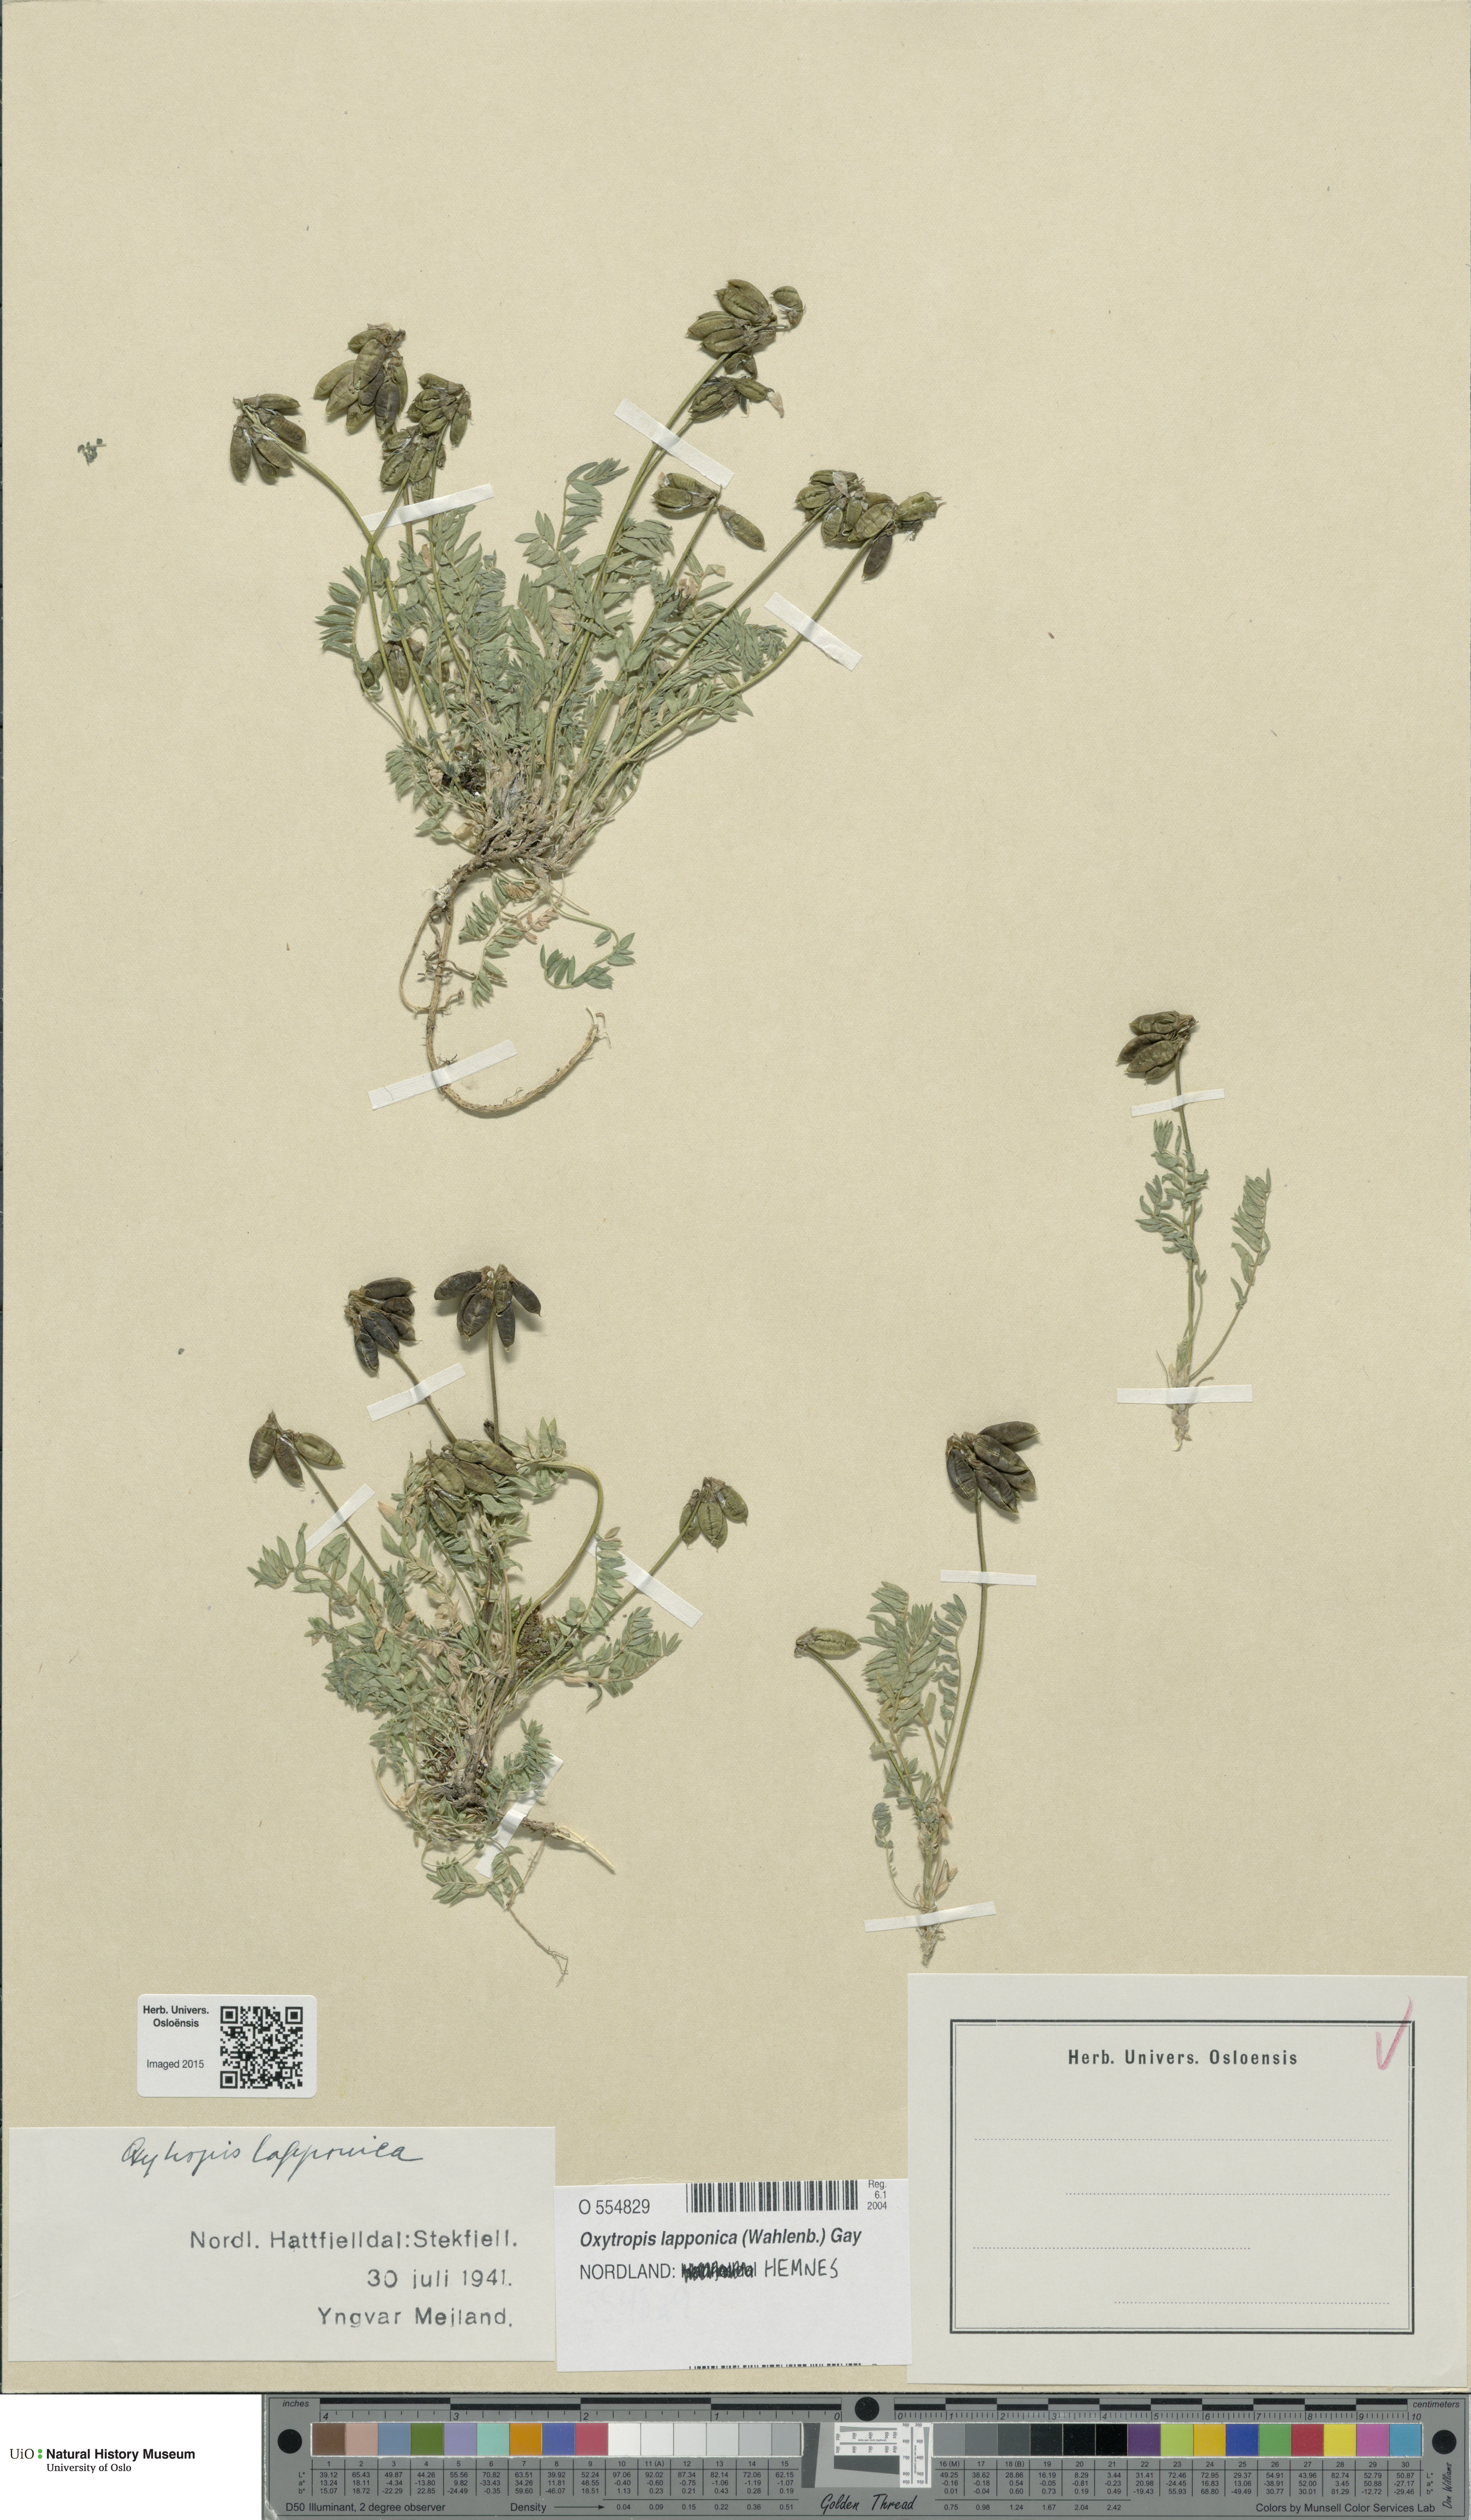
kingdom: Plantae
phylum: Tracheophyta
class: Magnoliopsida
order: Fabales
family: Fabaceae
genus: Oxytropis
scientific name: Oxytropis lapponica
